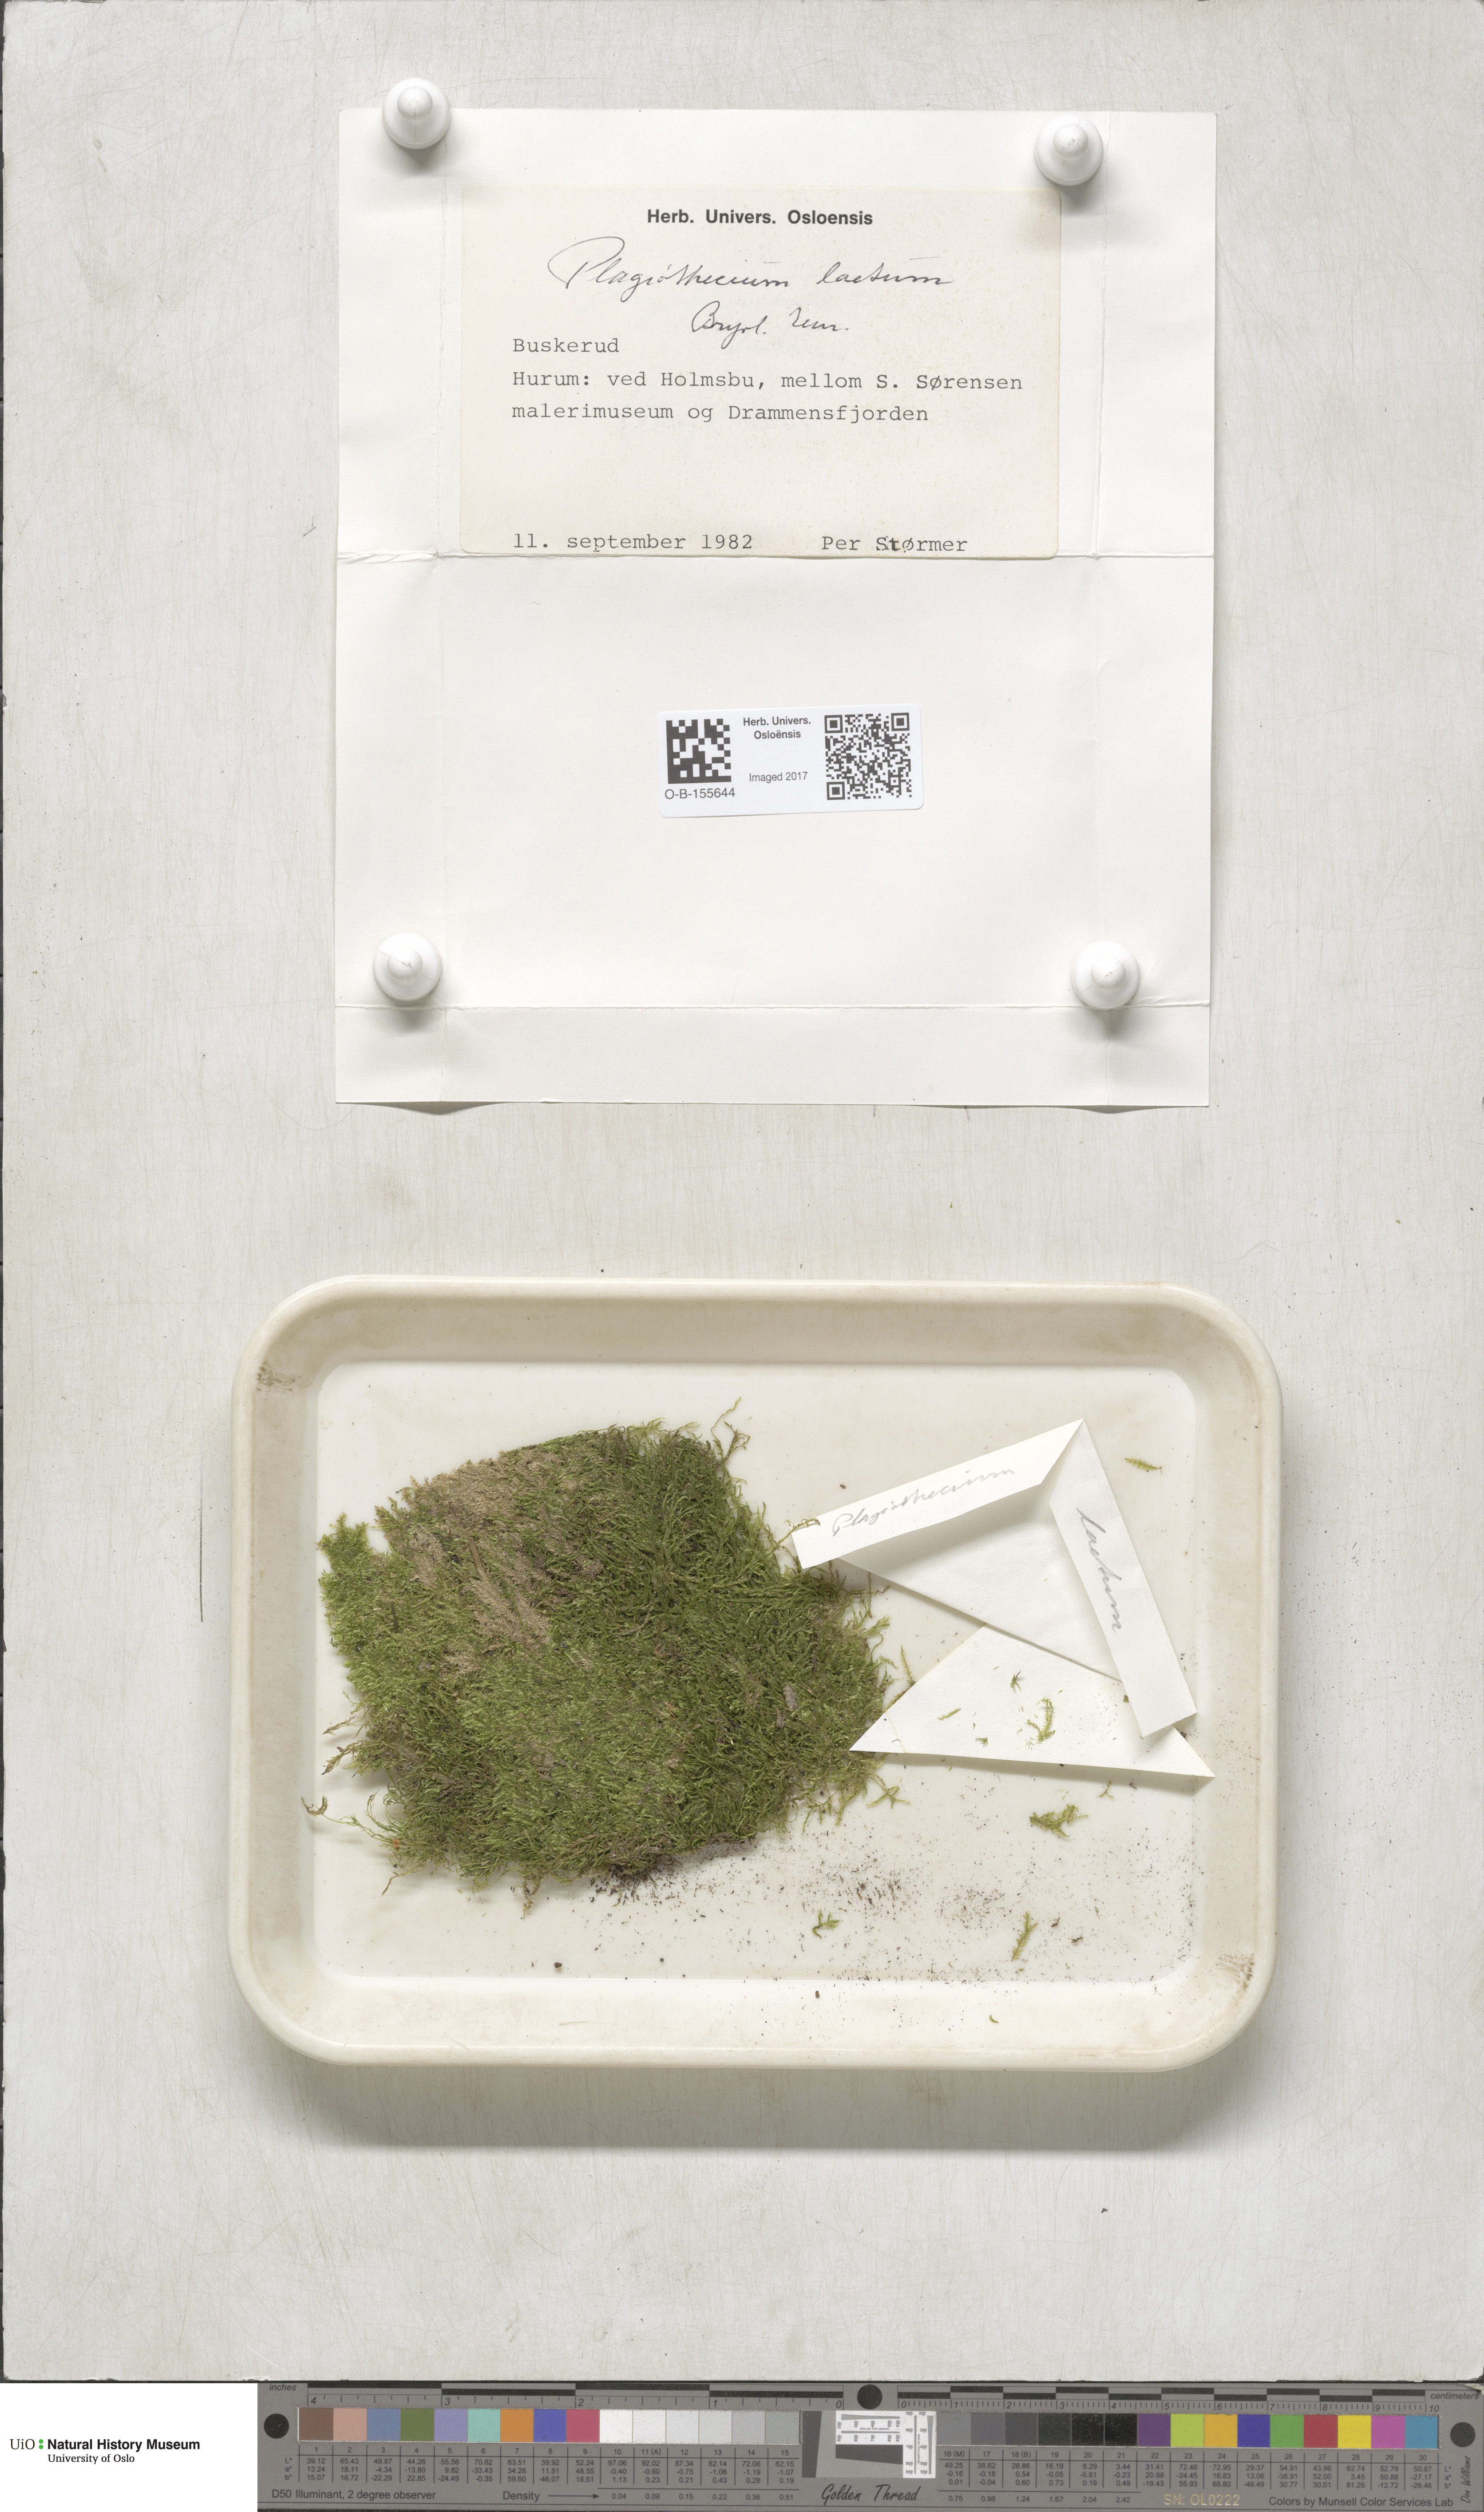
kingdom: Plantae
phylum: Bryophyta
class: Bryopsida
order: Hypnales
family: Plagiotheciaceae
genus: Plagiothecium
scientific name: Plagiothecium laetum
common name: Bright silk moss
